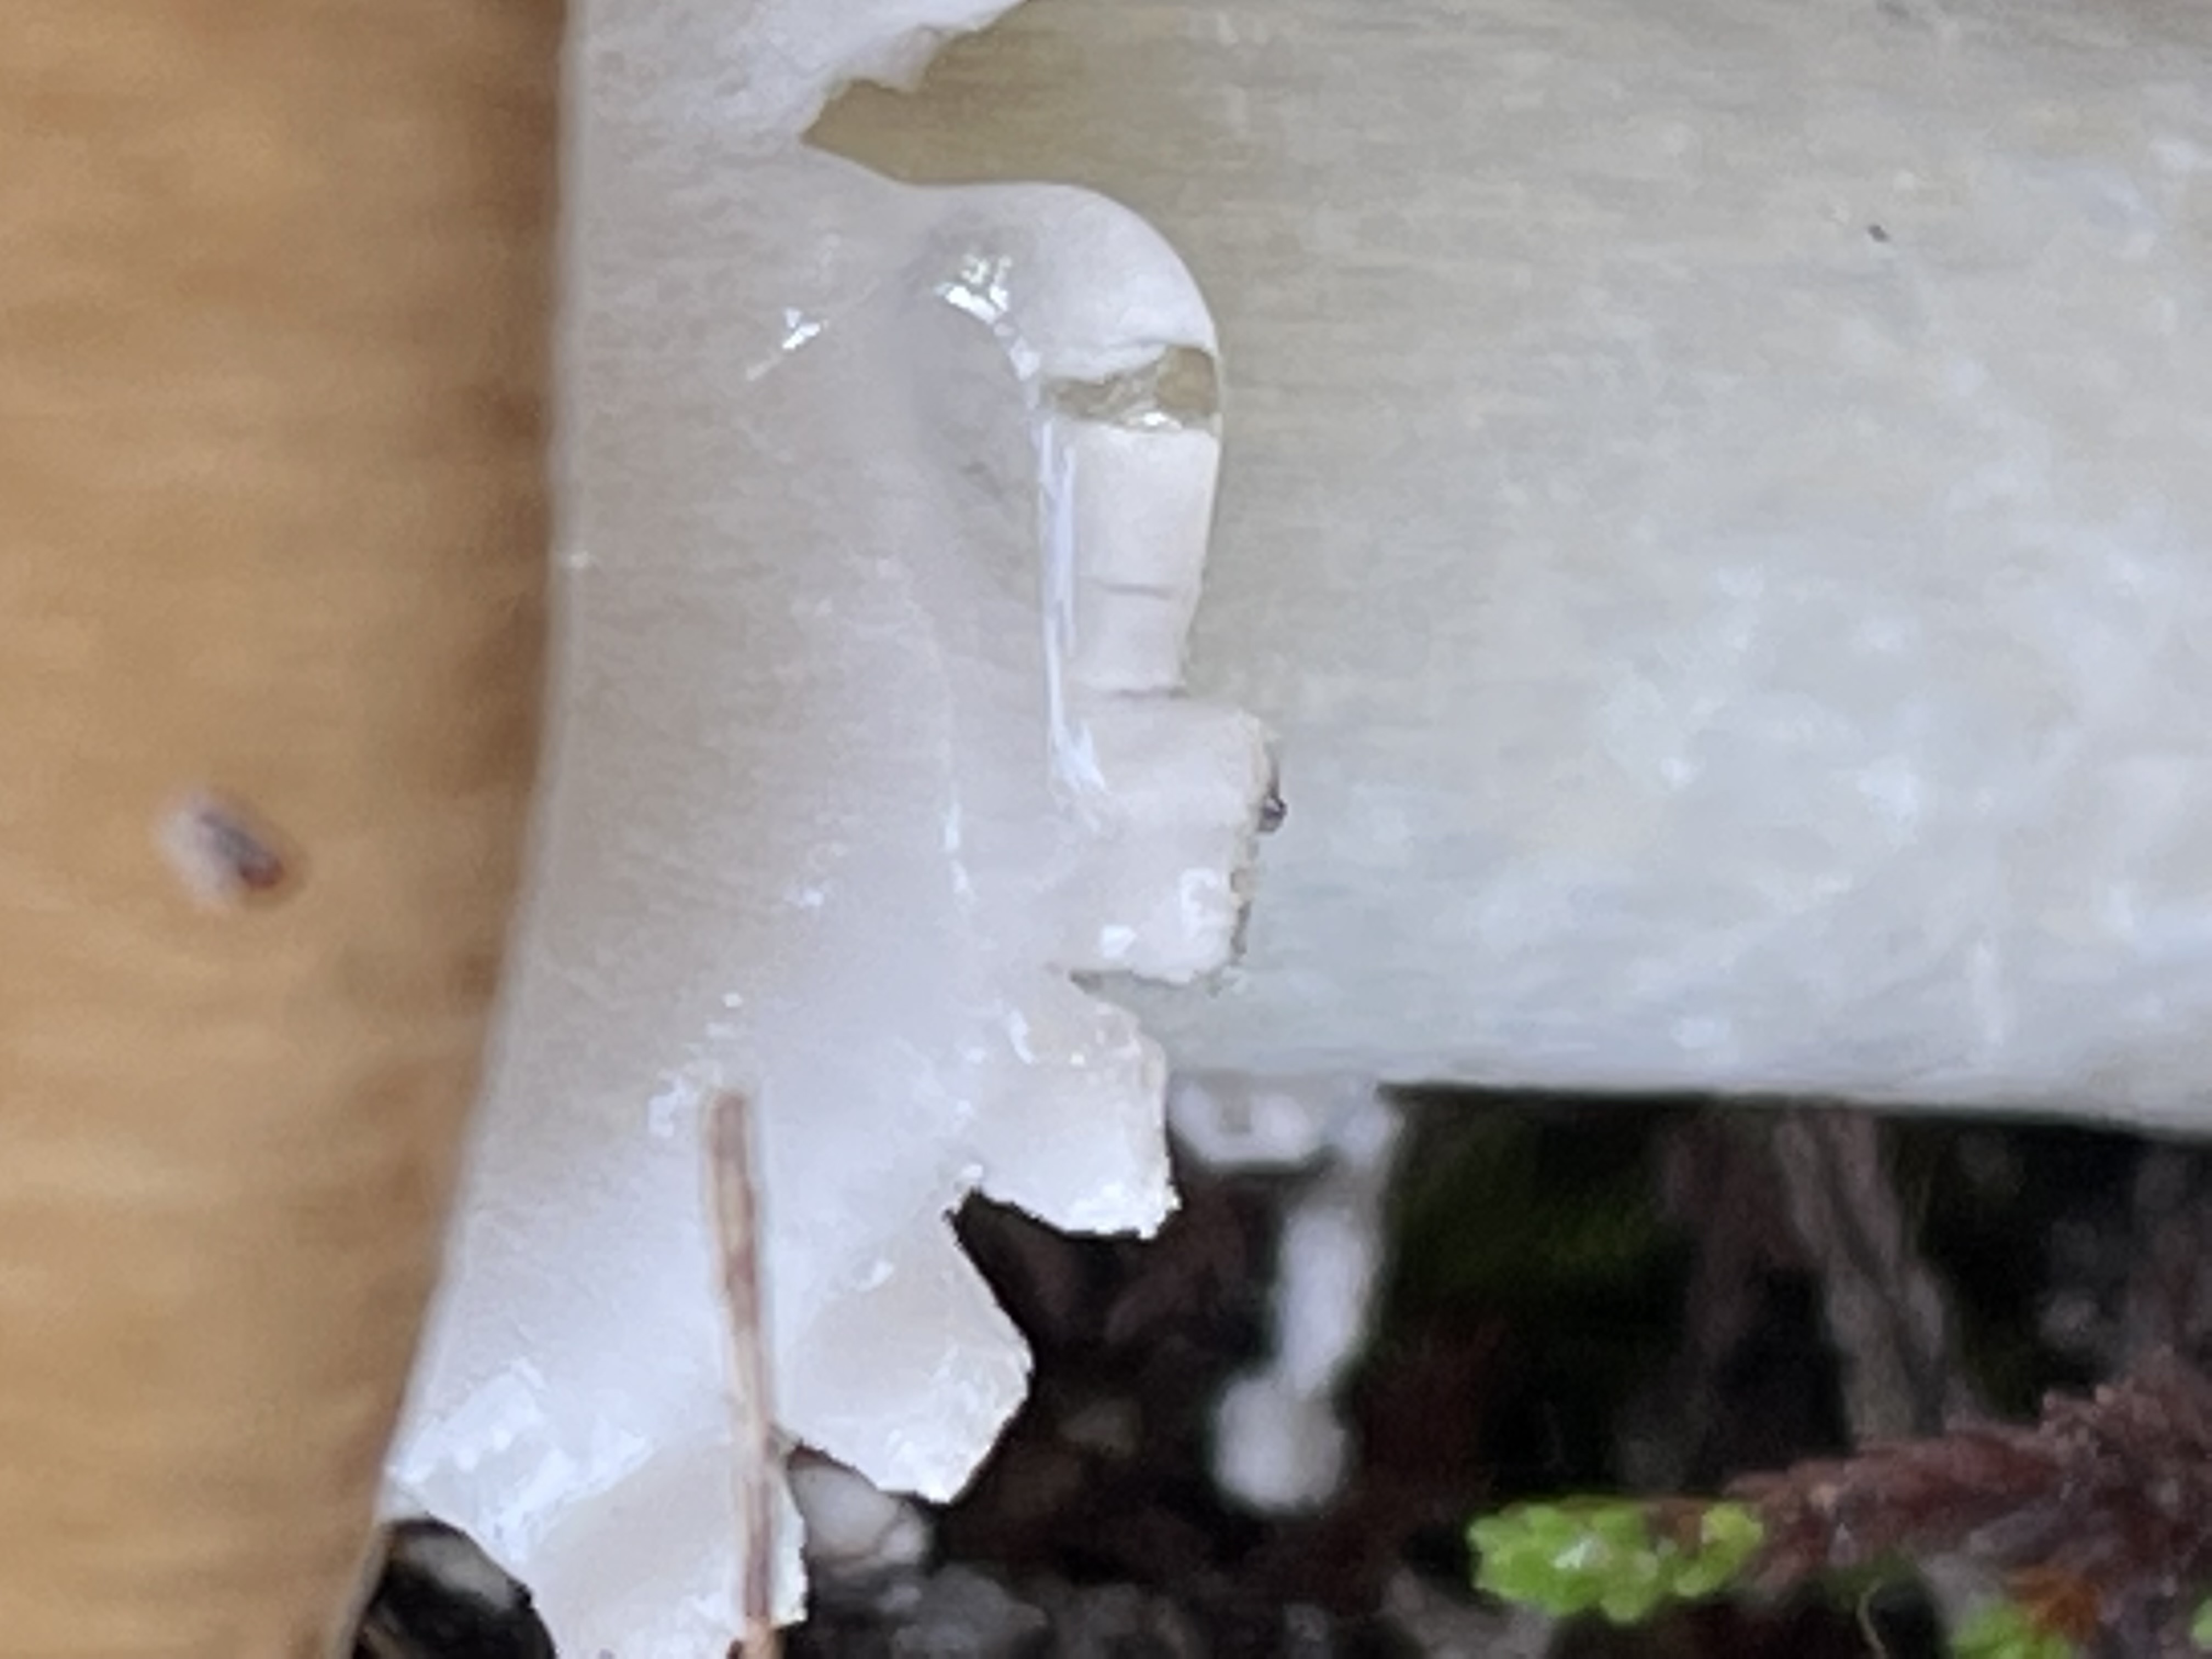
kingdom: Fungi
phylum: Basidiomycota
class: Agaricomycetes
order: Agaricales
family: Amanitaceae
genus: Amanita
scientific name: Amanita pantherina
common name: panter-fluesvamp
